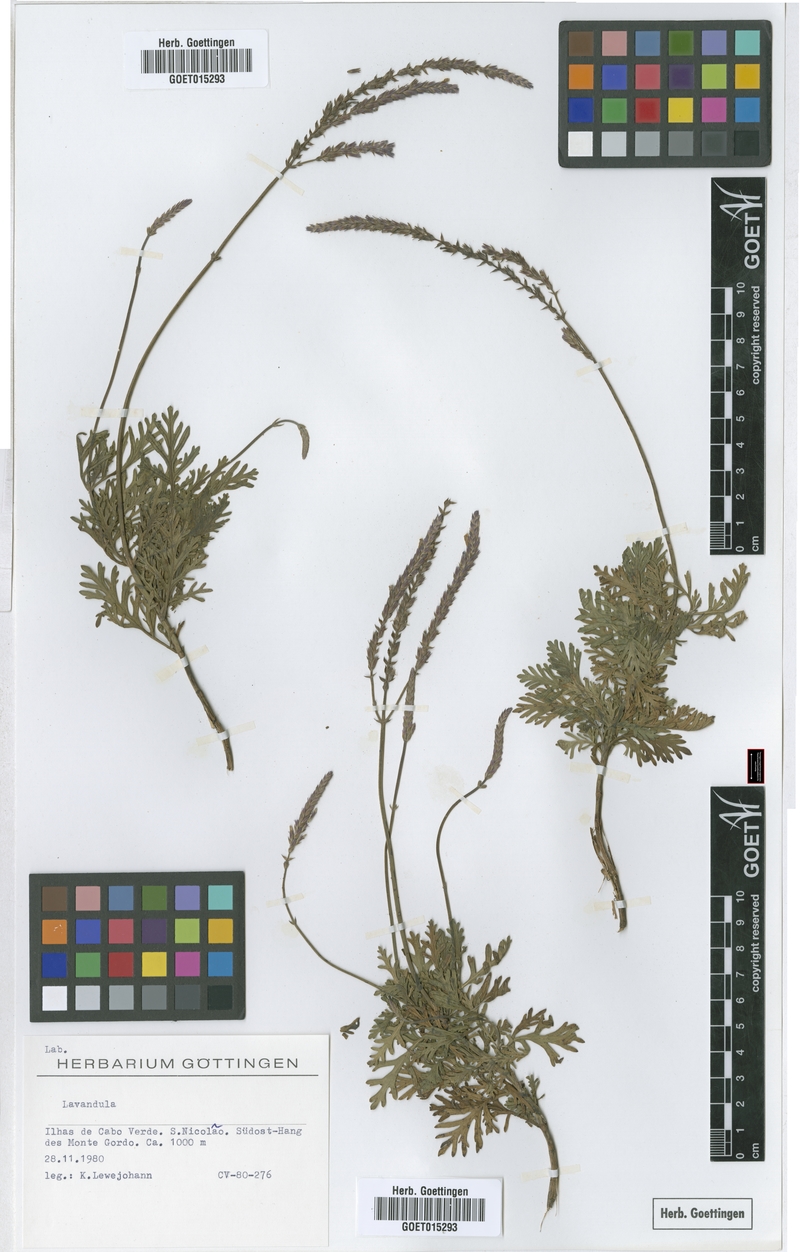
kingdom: Plantae
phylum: Tracheophyta
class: Magnoliopsida
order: Lamiales
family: Lamiaceae
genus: Lavandula
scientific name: Lavandula
